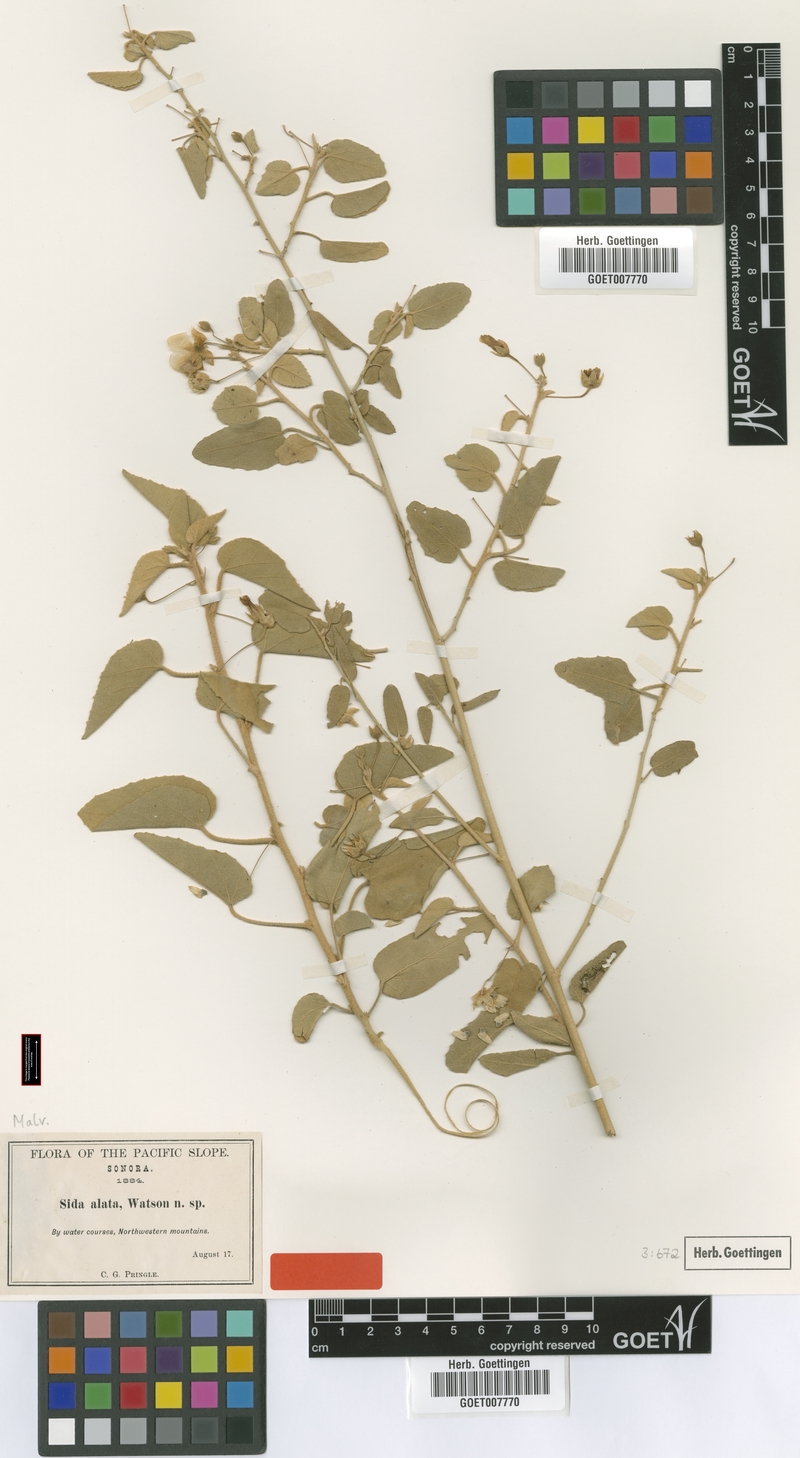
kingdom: Plantae
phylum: Tracheophyta
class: Magnoliopsida
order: Malvales
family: Malvaceae
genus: Horsfordia
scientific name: Horsfordia alata
